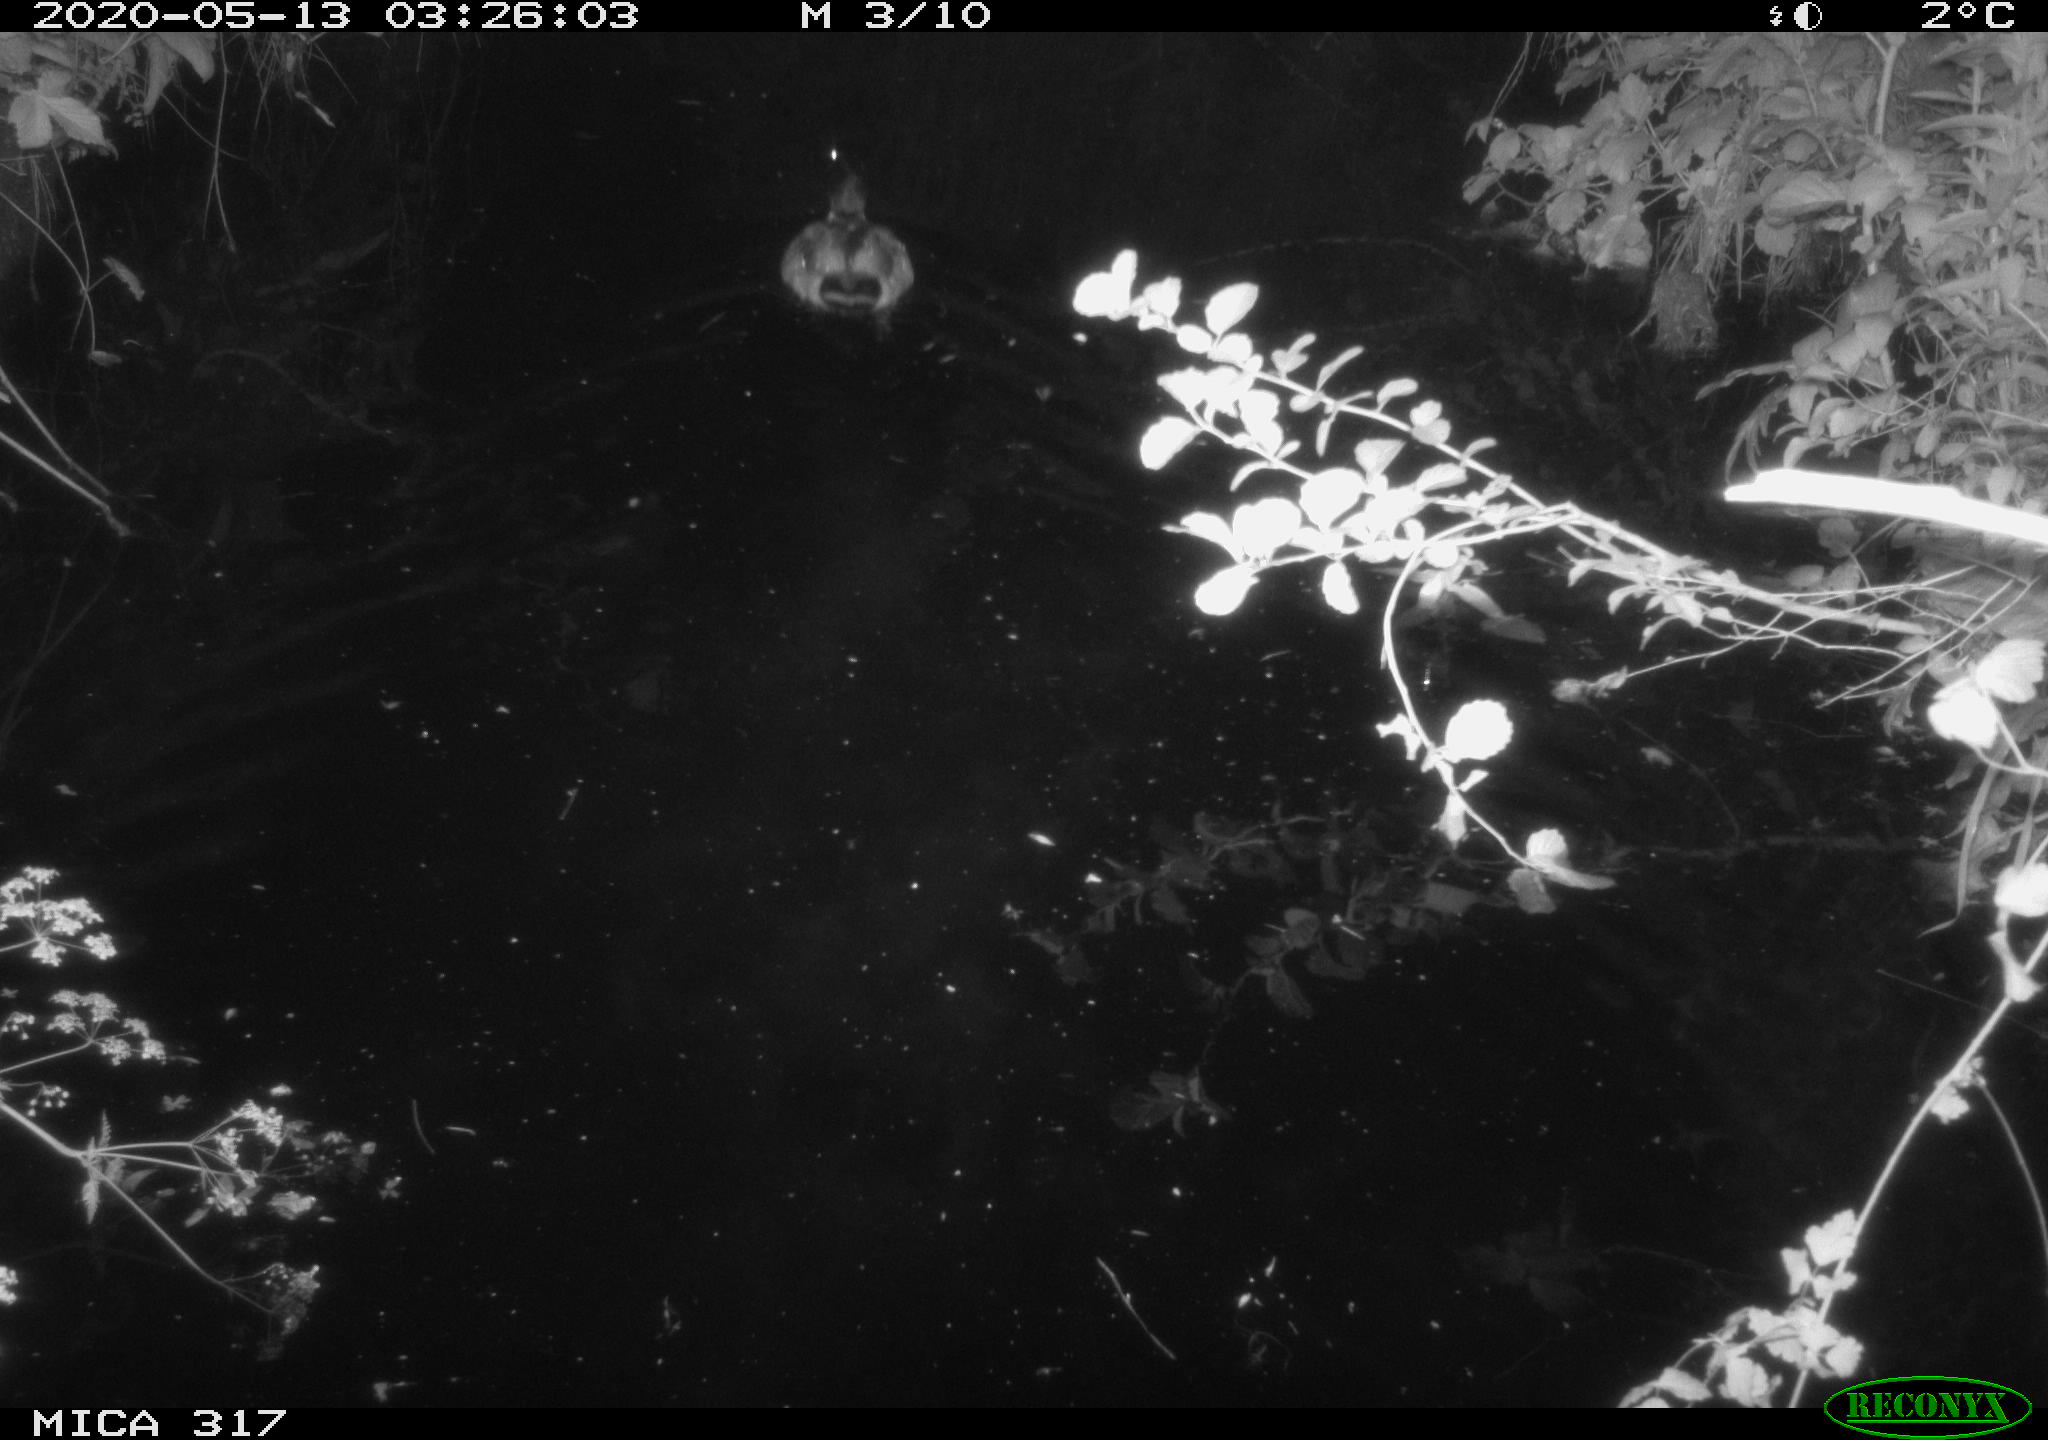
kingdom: Animalia
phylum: Chordata
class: Aves
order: Anseriformes
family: Anatidae
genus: Anas
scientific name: Anas platyrhynchos
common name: Mallard
